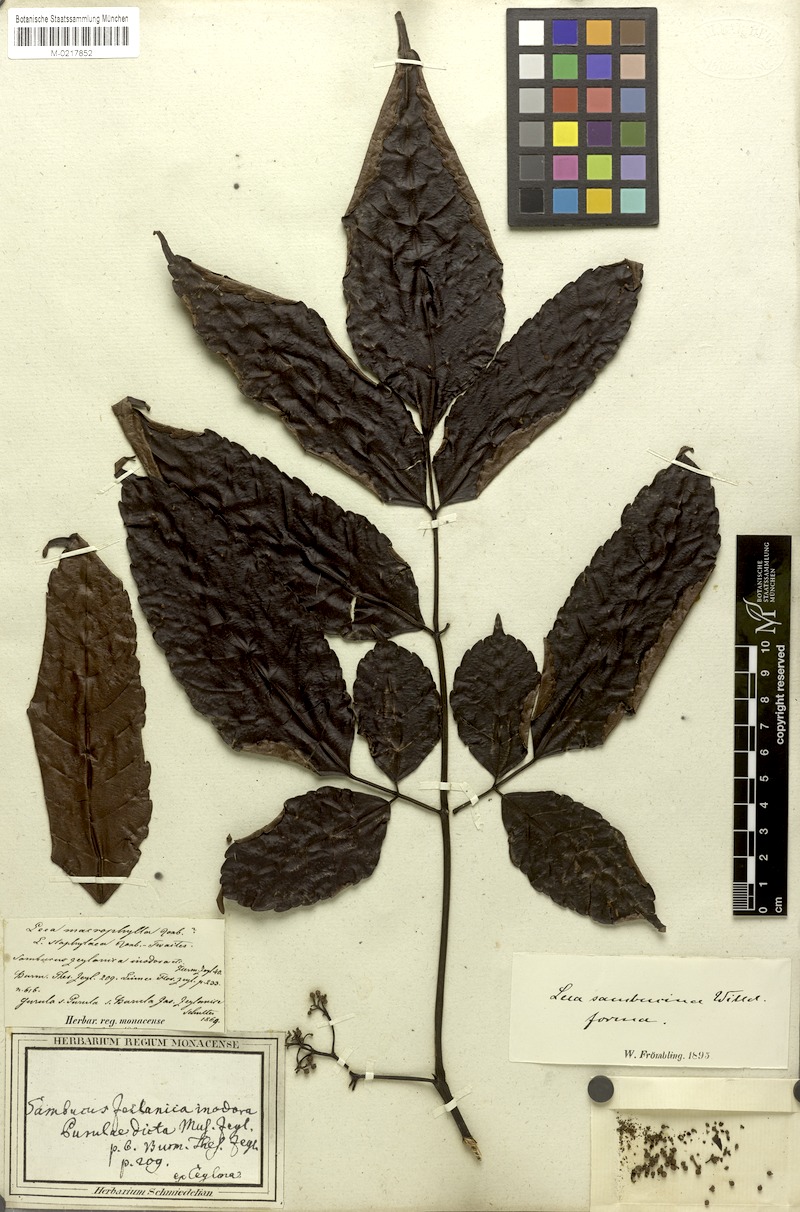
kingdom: Plantae
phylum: Tracheophyta
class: Magnoliopsida
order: Vitales
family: Vitaceae
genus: Leea
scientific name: Leea indica
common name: Bandicoot-berry
